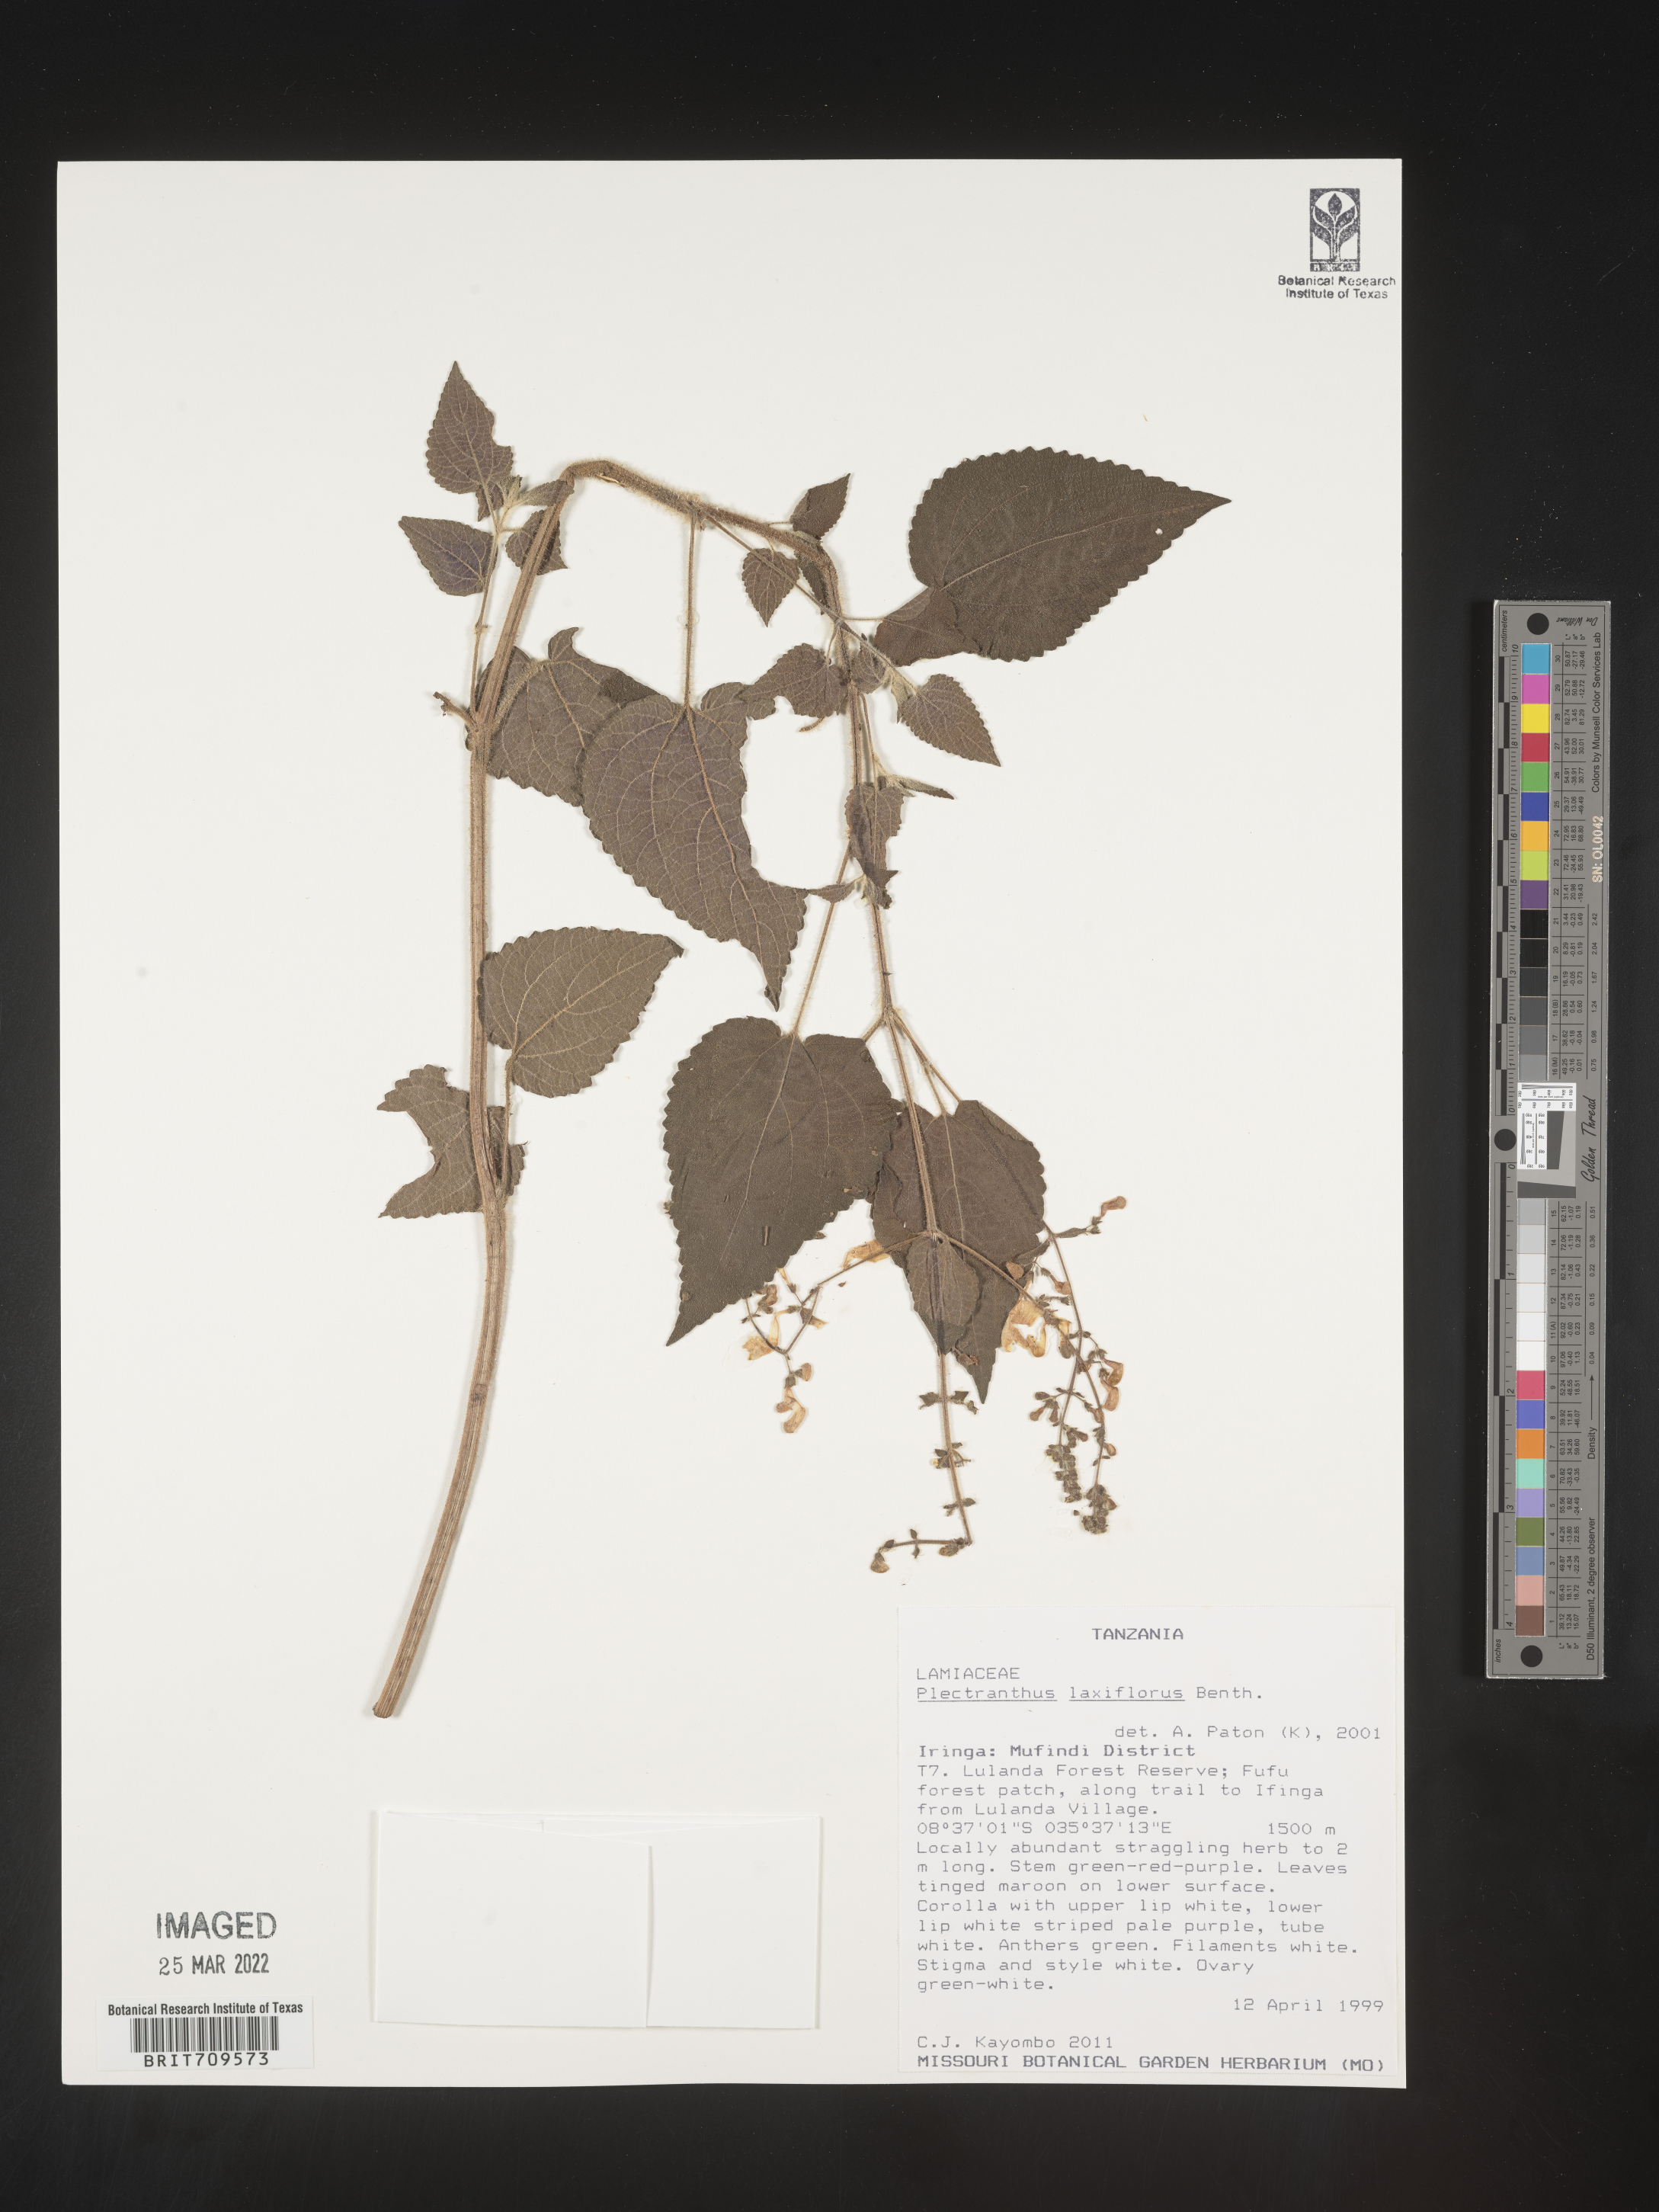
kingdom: Plantae
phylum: Tracheophyta
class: Magnoliopsida
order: Lamiales
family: Lamiaceae
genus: Plectranthus
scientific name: Plectranthus
